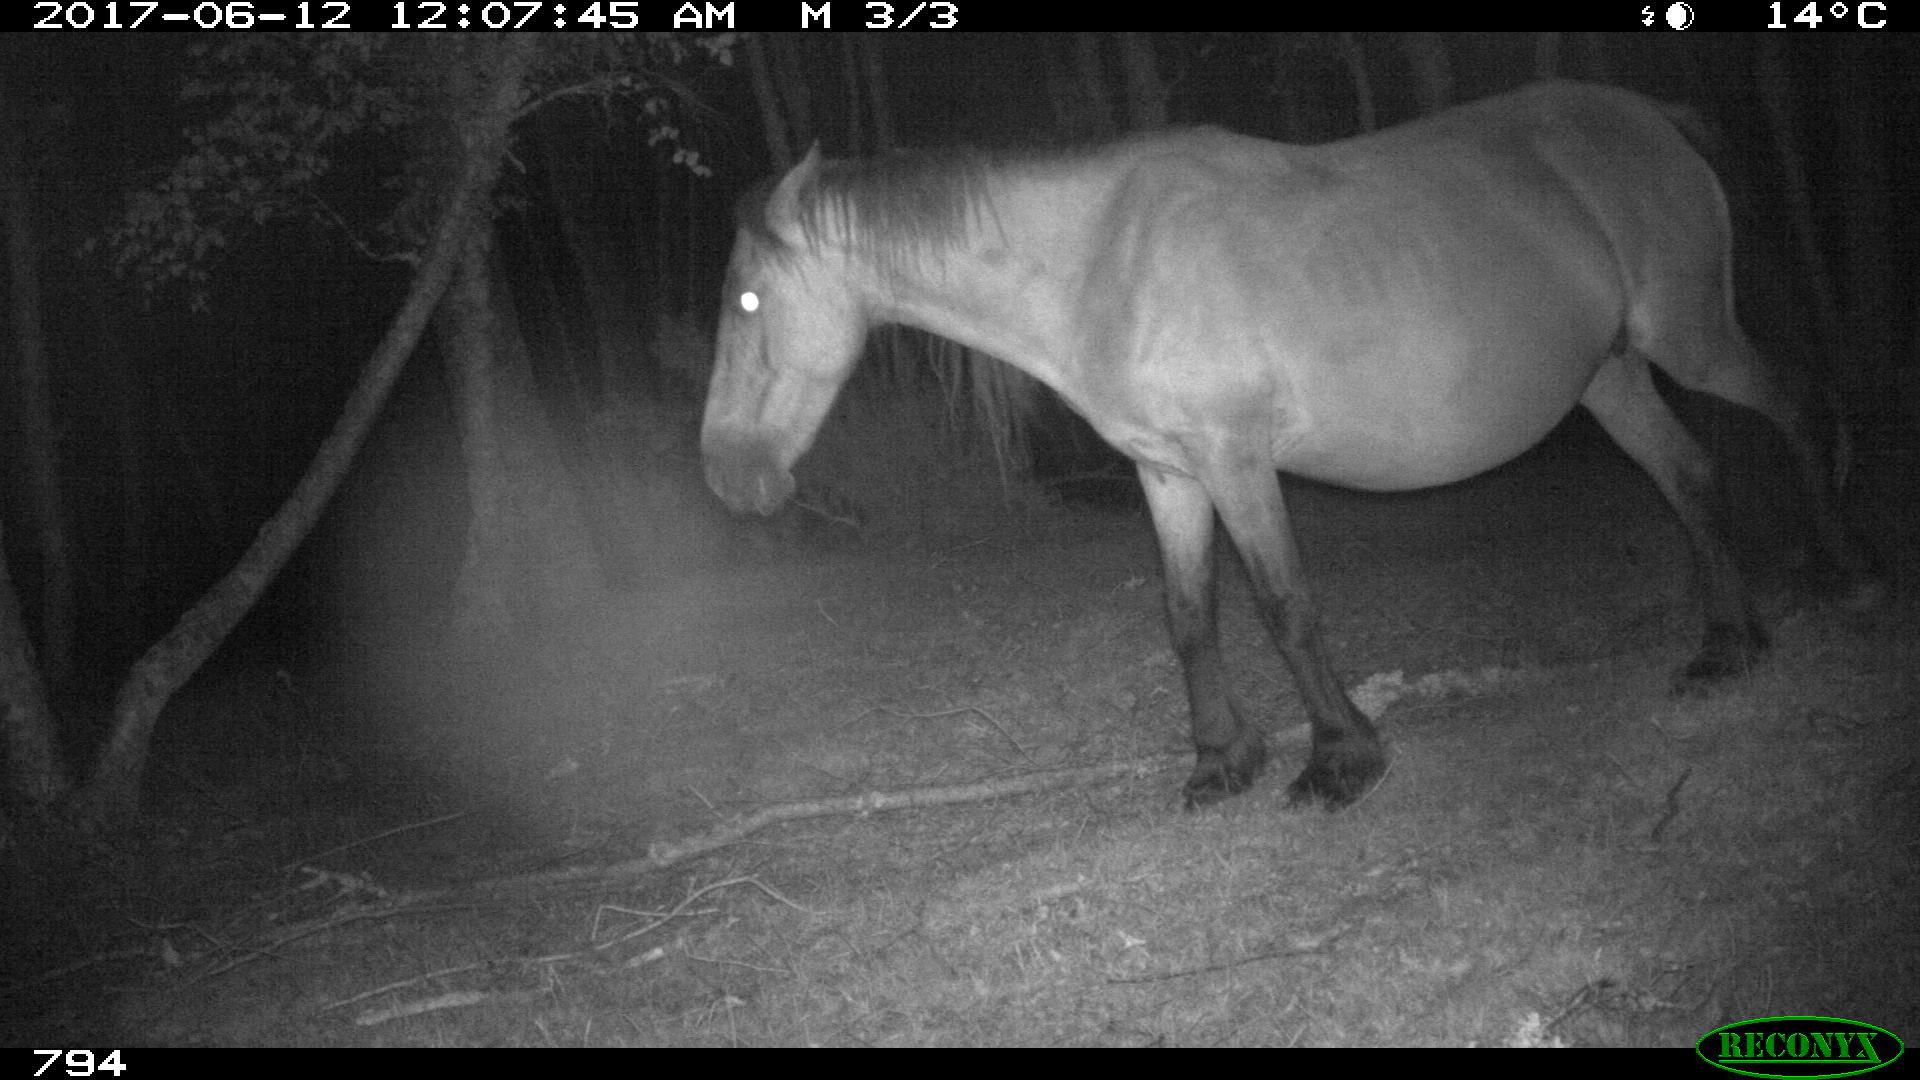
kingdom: Animalia
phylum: Chordata
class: Mammalia
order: Perissodactyla
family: Equidae
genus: Equus
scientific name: Equus caballus
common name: Horse
